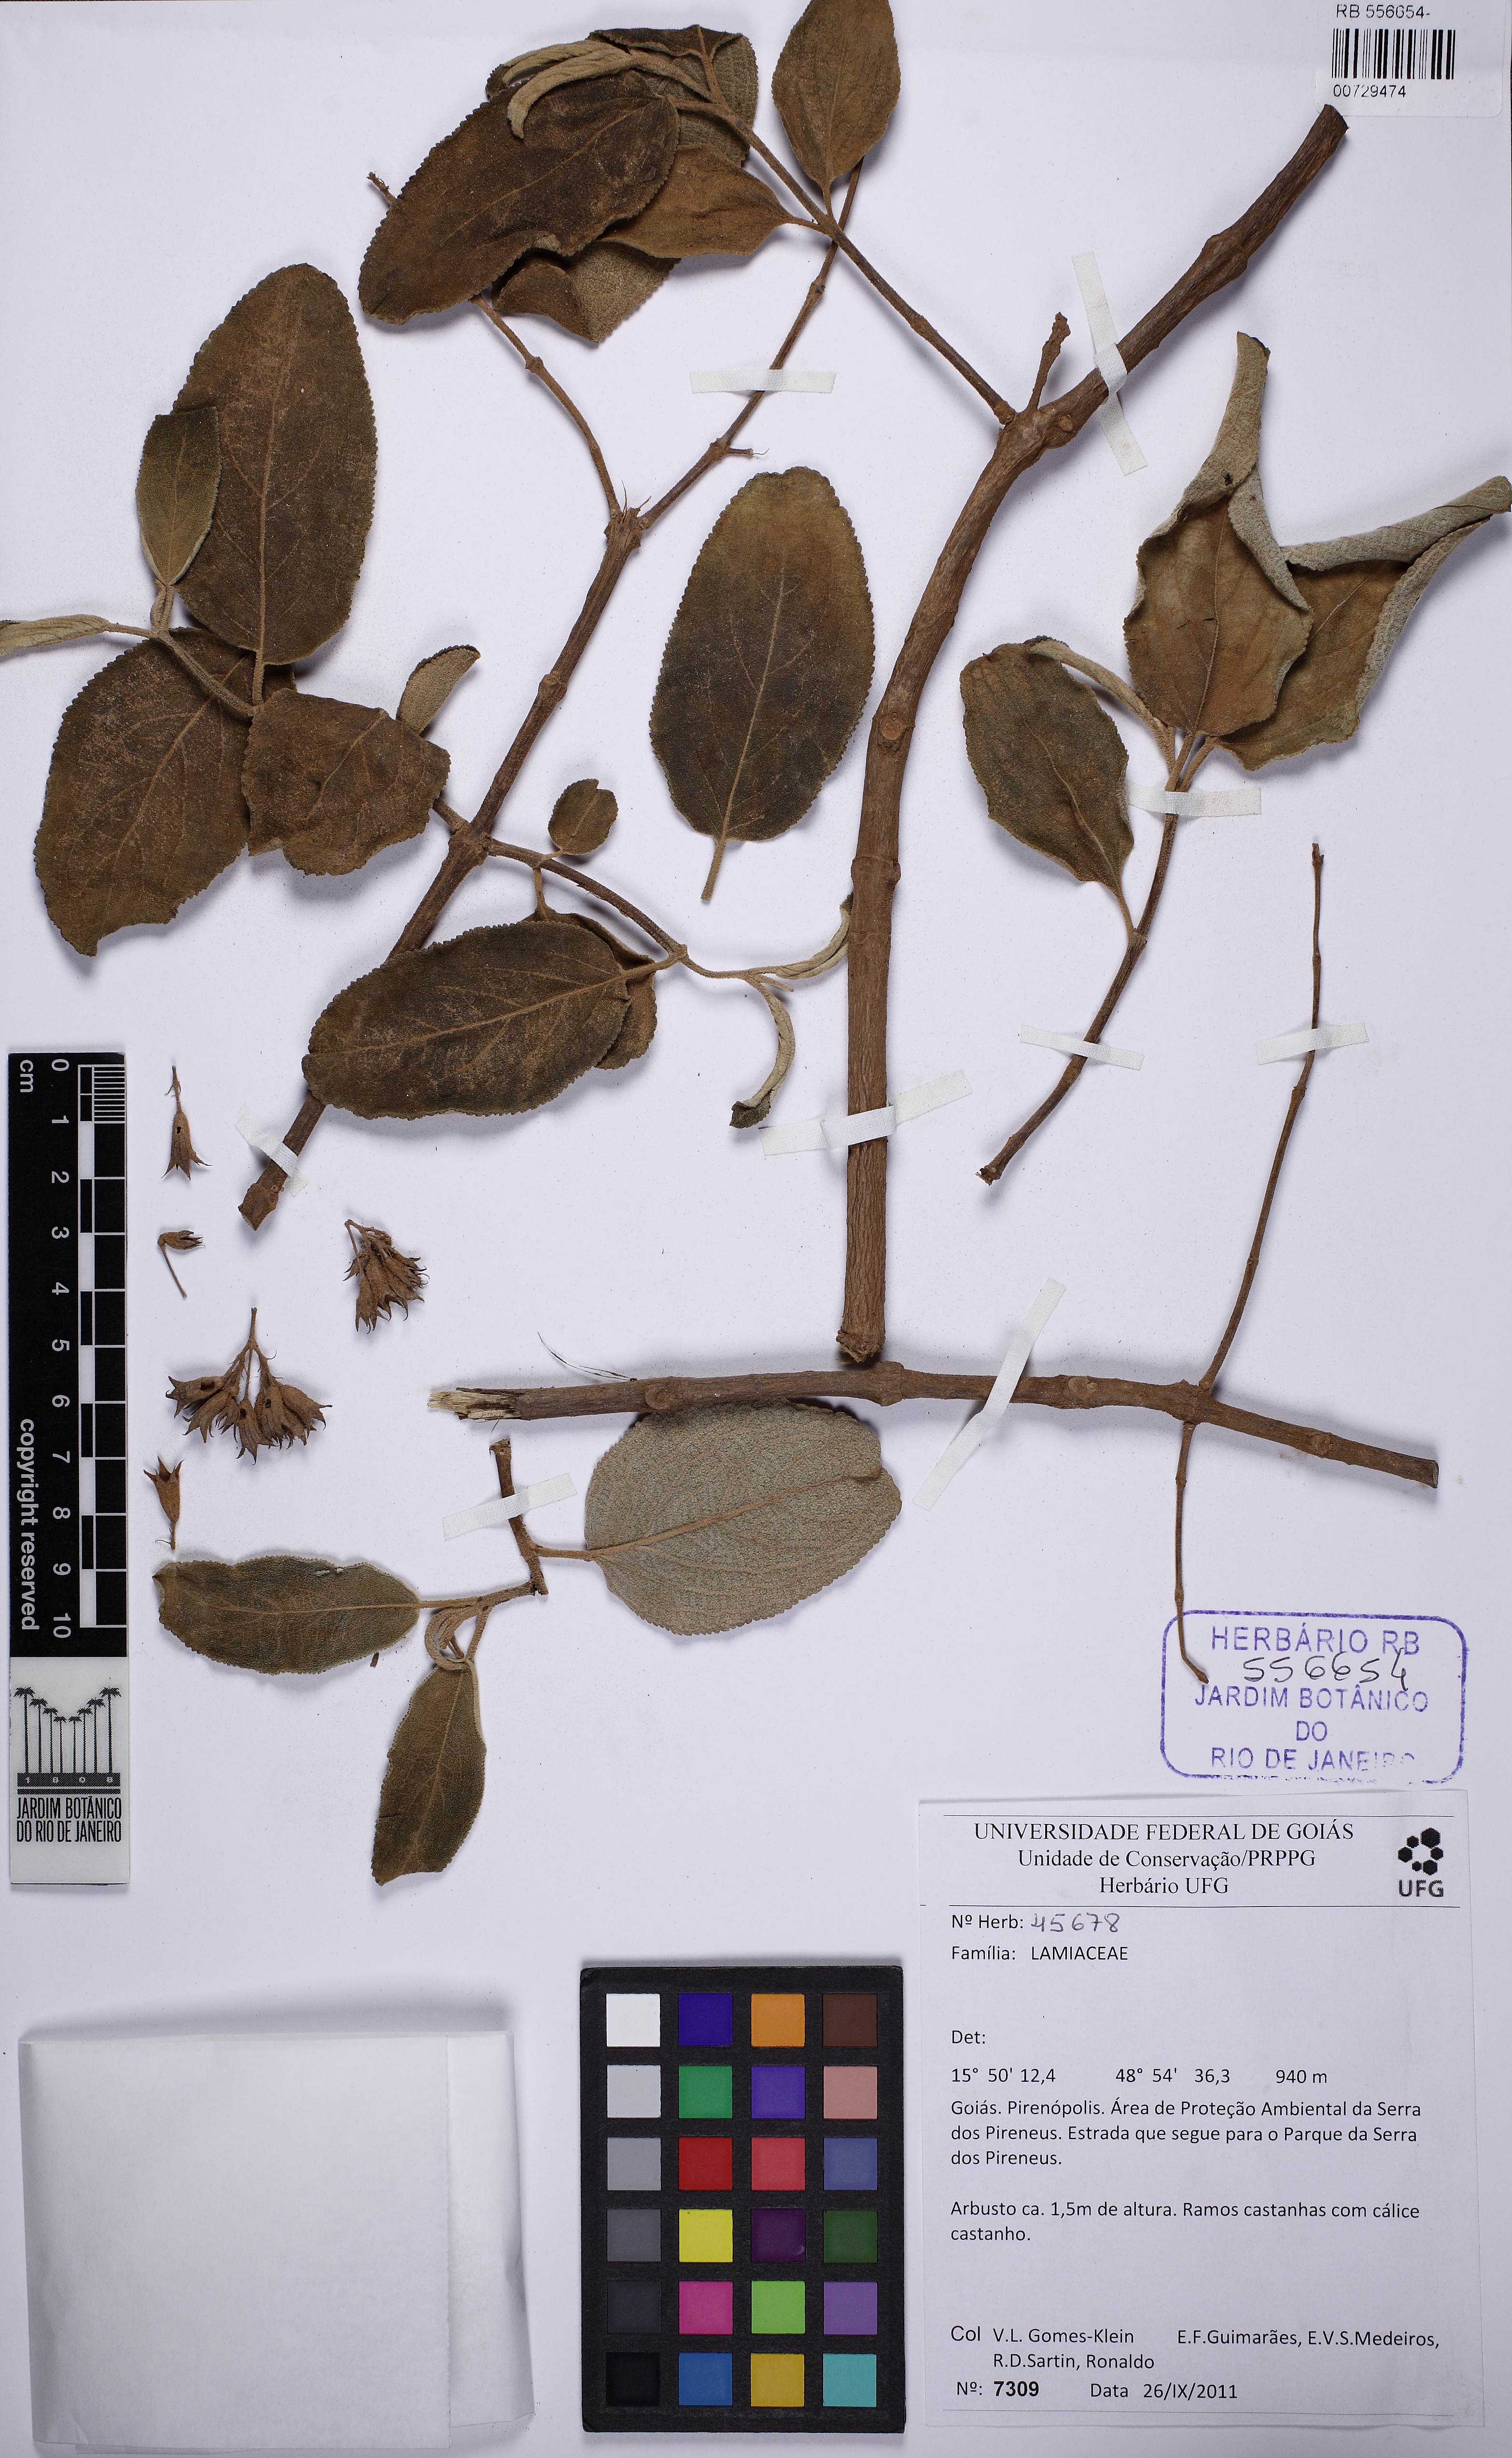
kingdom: Plantae
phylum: Tracheophyta
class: Magnoliopsida
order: Lamiales
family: Lamiaceae
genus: Hyptidendron
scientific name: Hyptidendron canum
